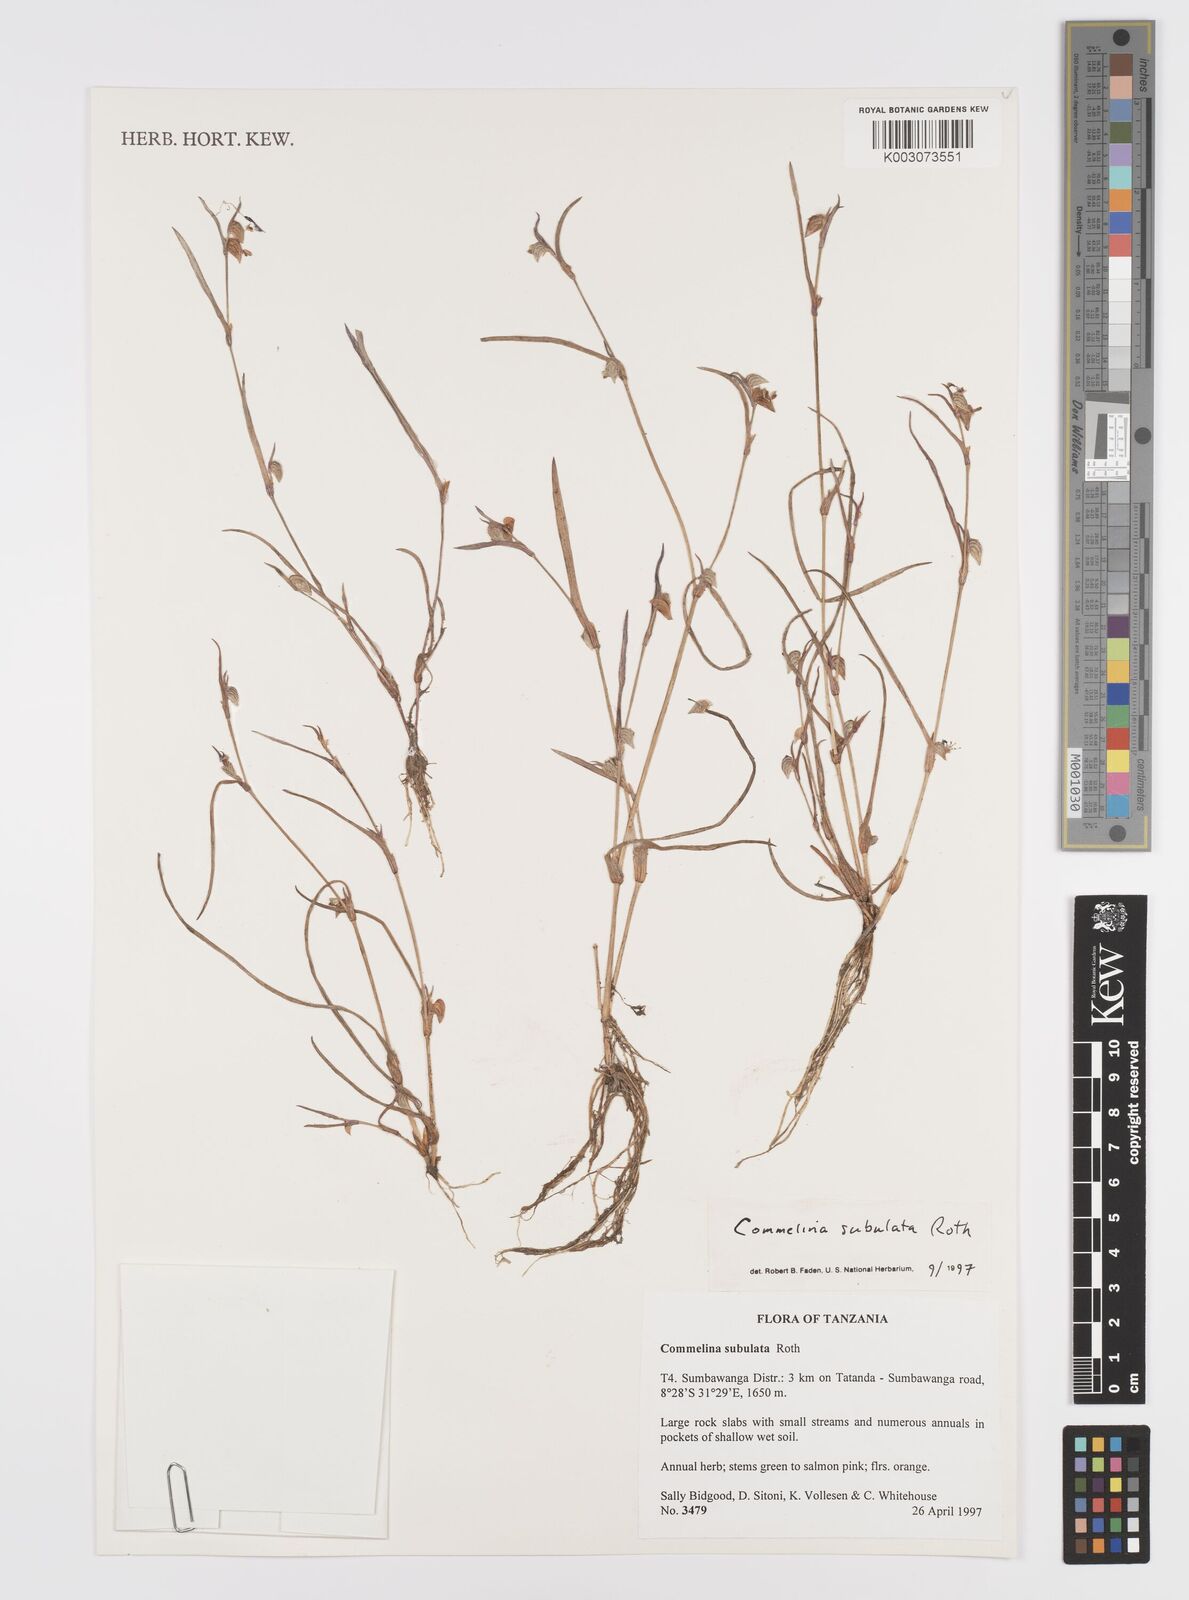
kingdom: Plantae
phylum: Tracheophyta
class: Liliopsida
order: Commelinales
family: Commelinaceae
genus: Commelina
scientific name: Commelina subulata
